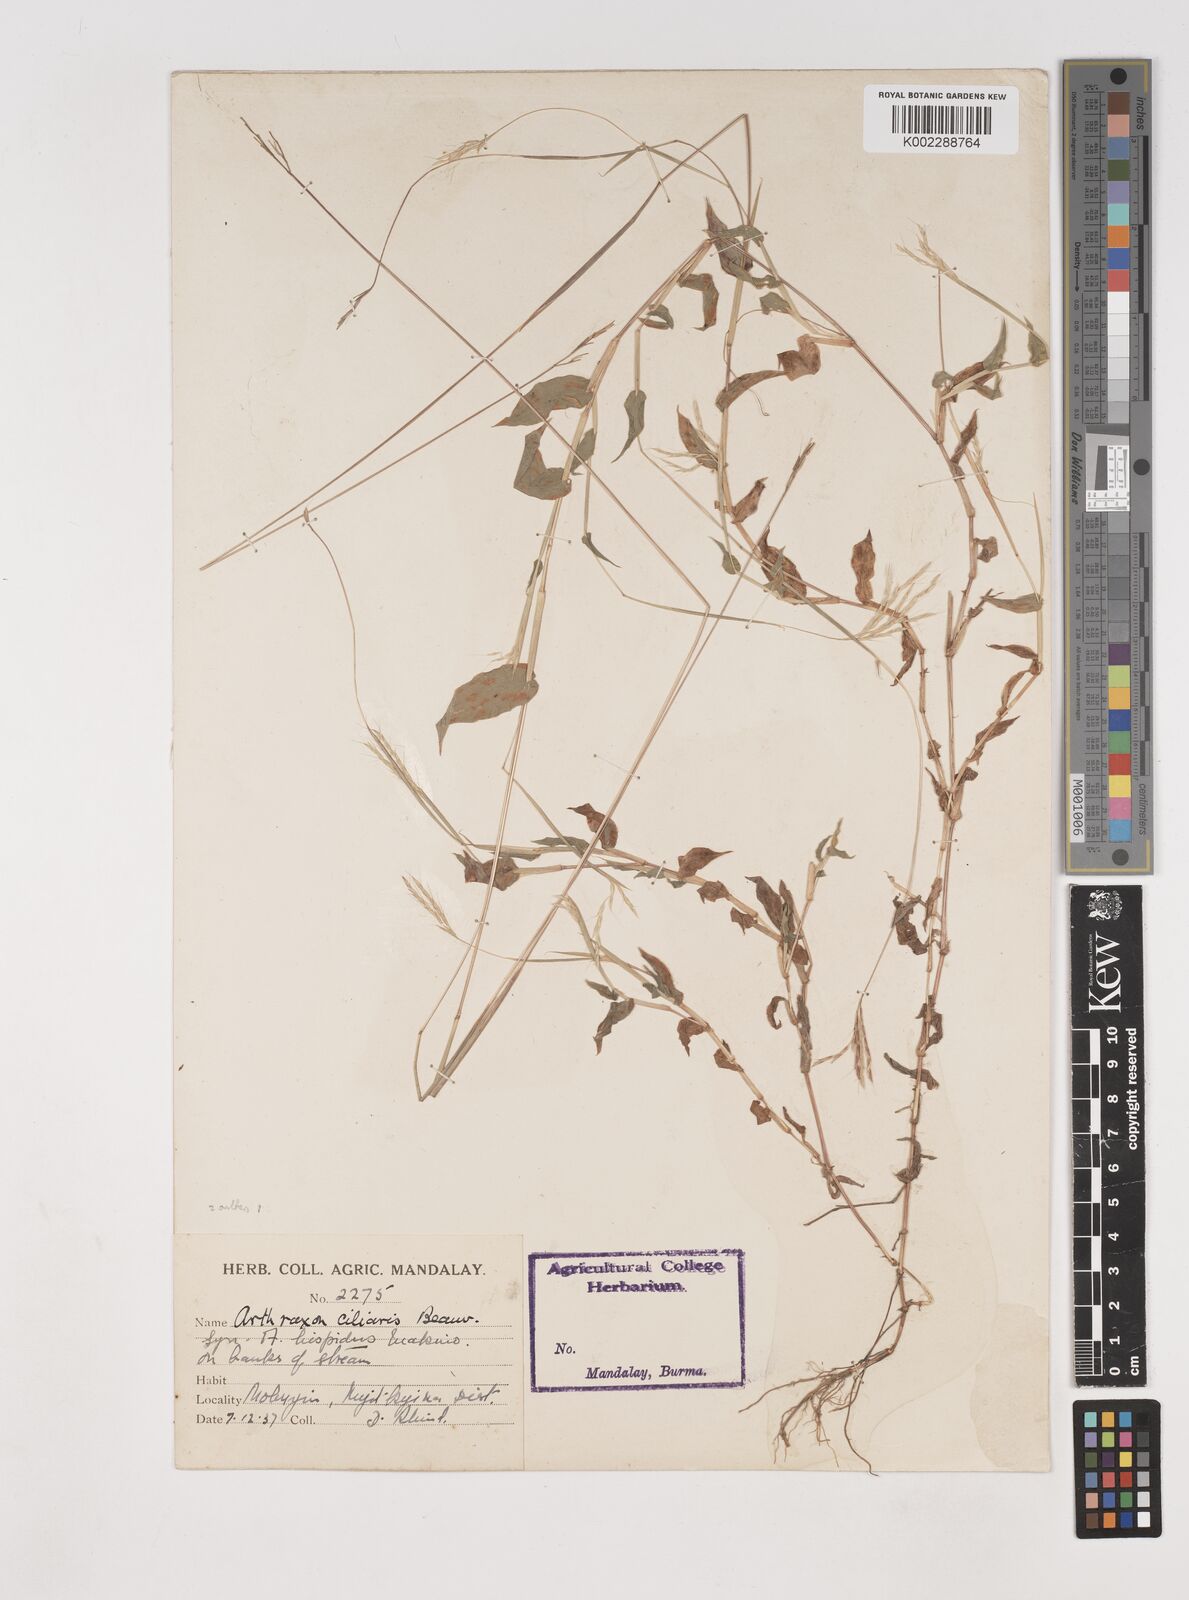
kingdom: Plantae
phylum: Tracheophyta
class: Liliopsida
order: Poales
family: Poaceae
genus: Arthraxon
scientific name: Arthraxon hispidus
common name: Small carpgrass
